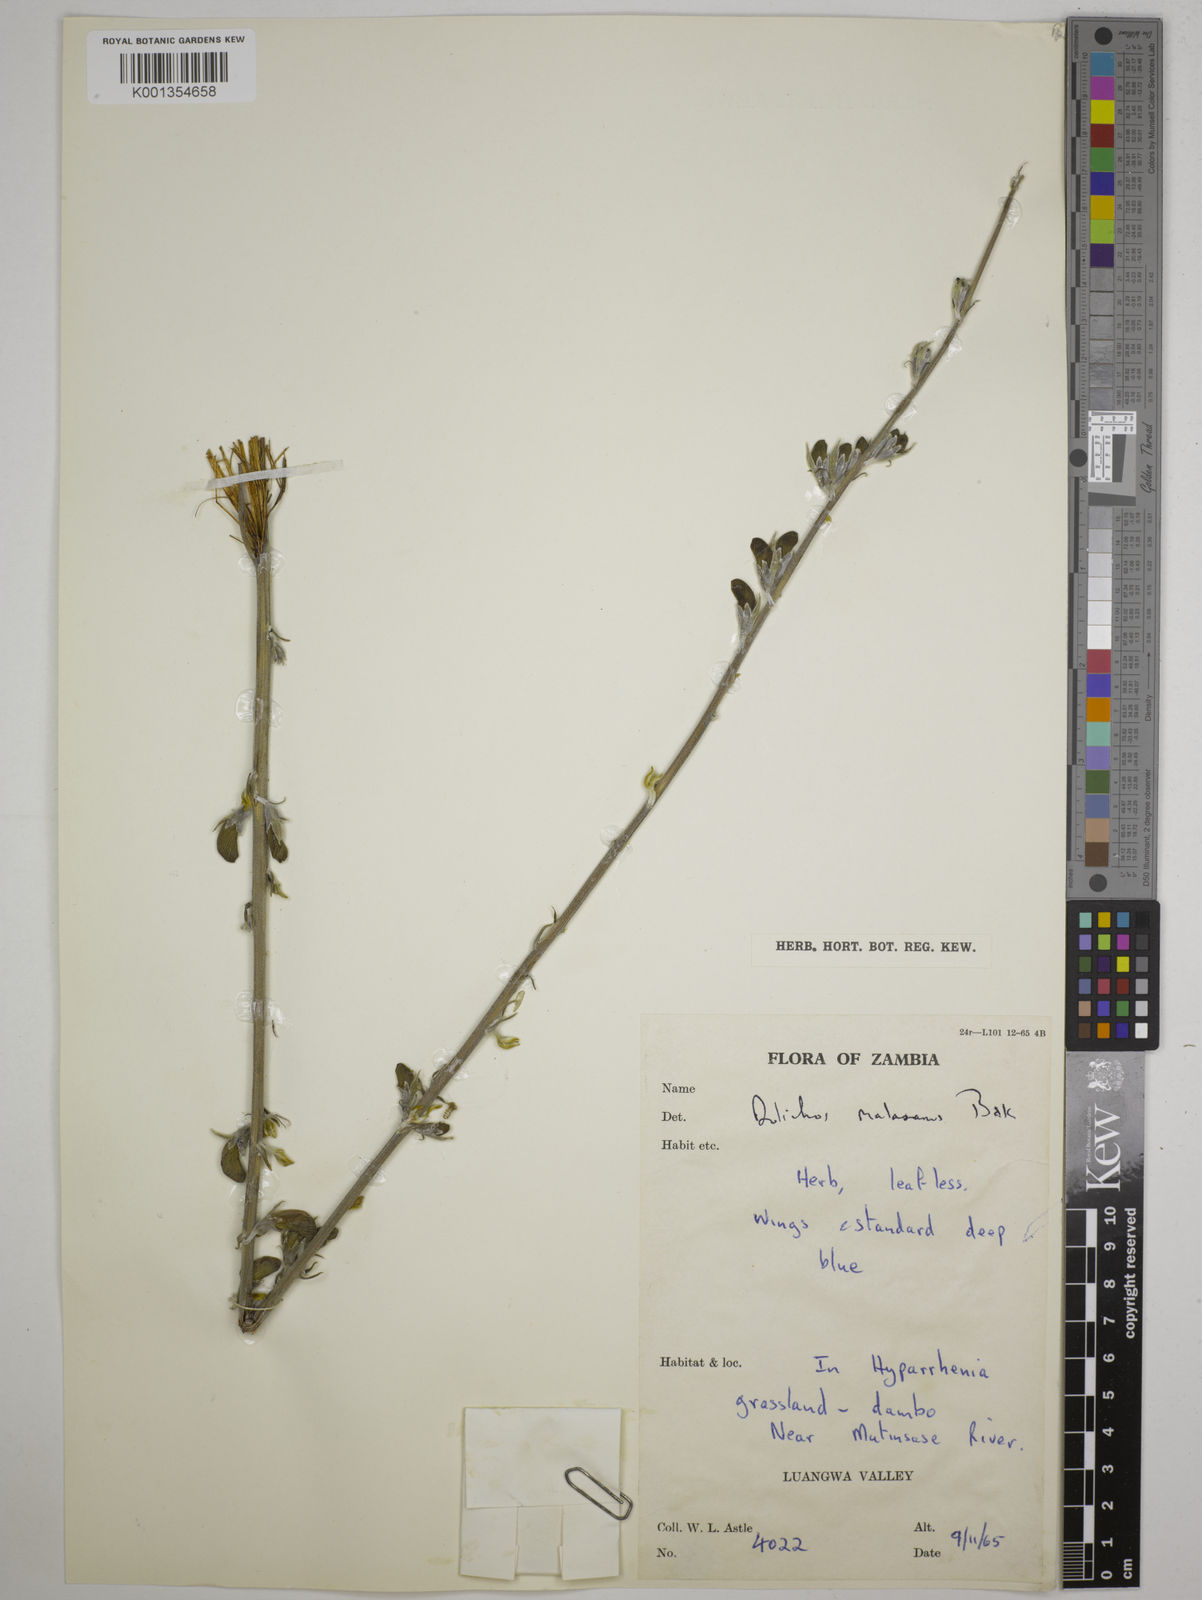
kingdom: Plantae
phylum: Tracheophyta
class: Magnoliopsida
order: Fabales
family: Fabaceae
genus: Dolichos
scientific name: Dolichos kilimandscharicus
